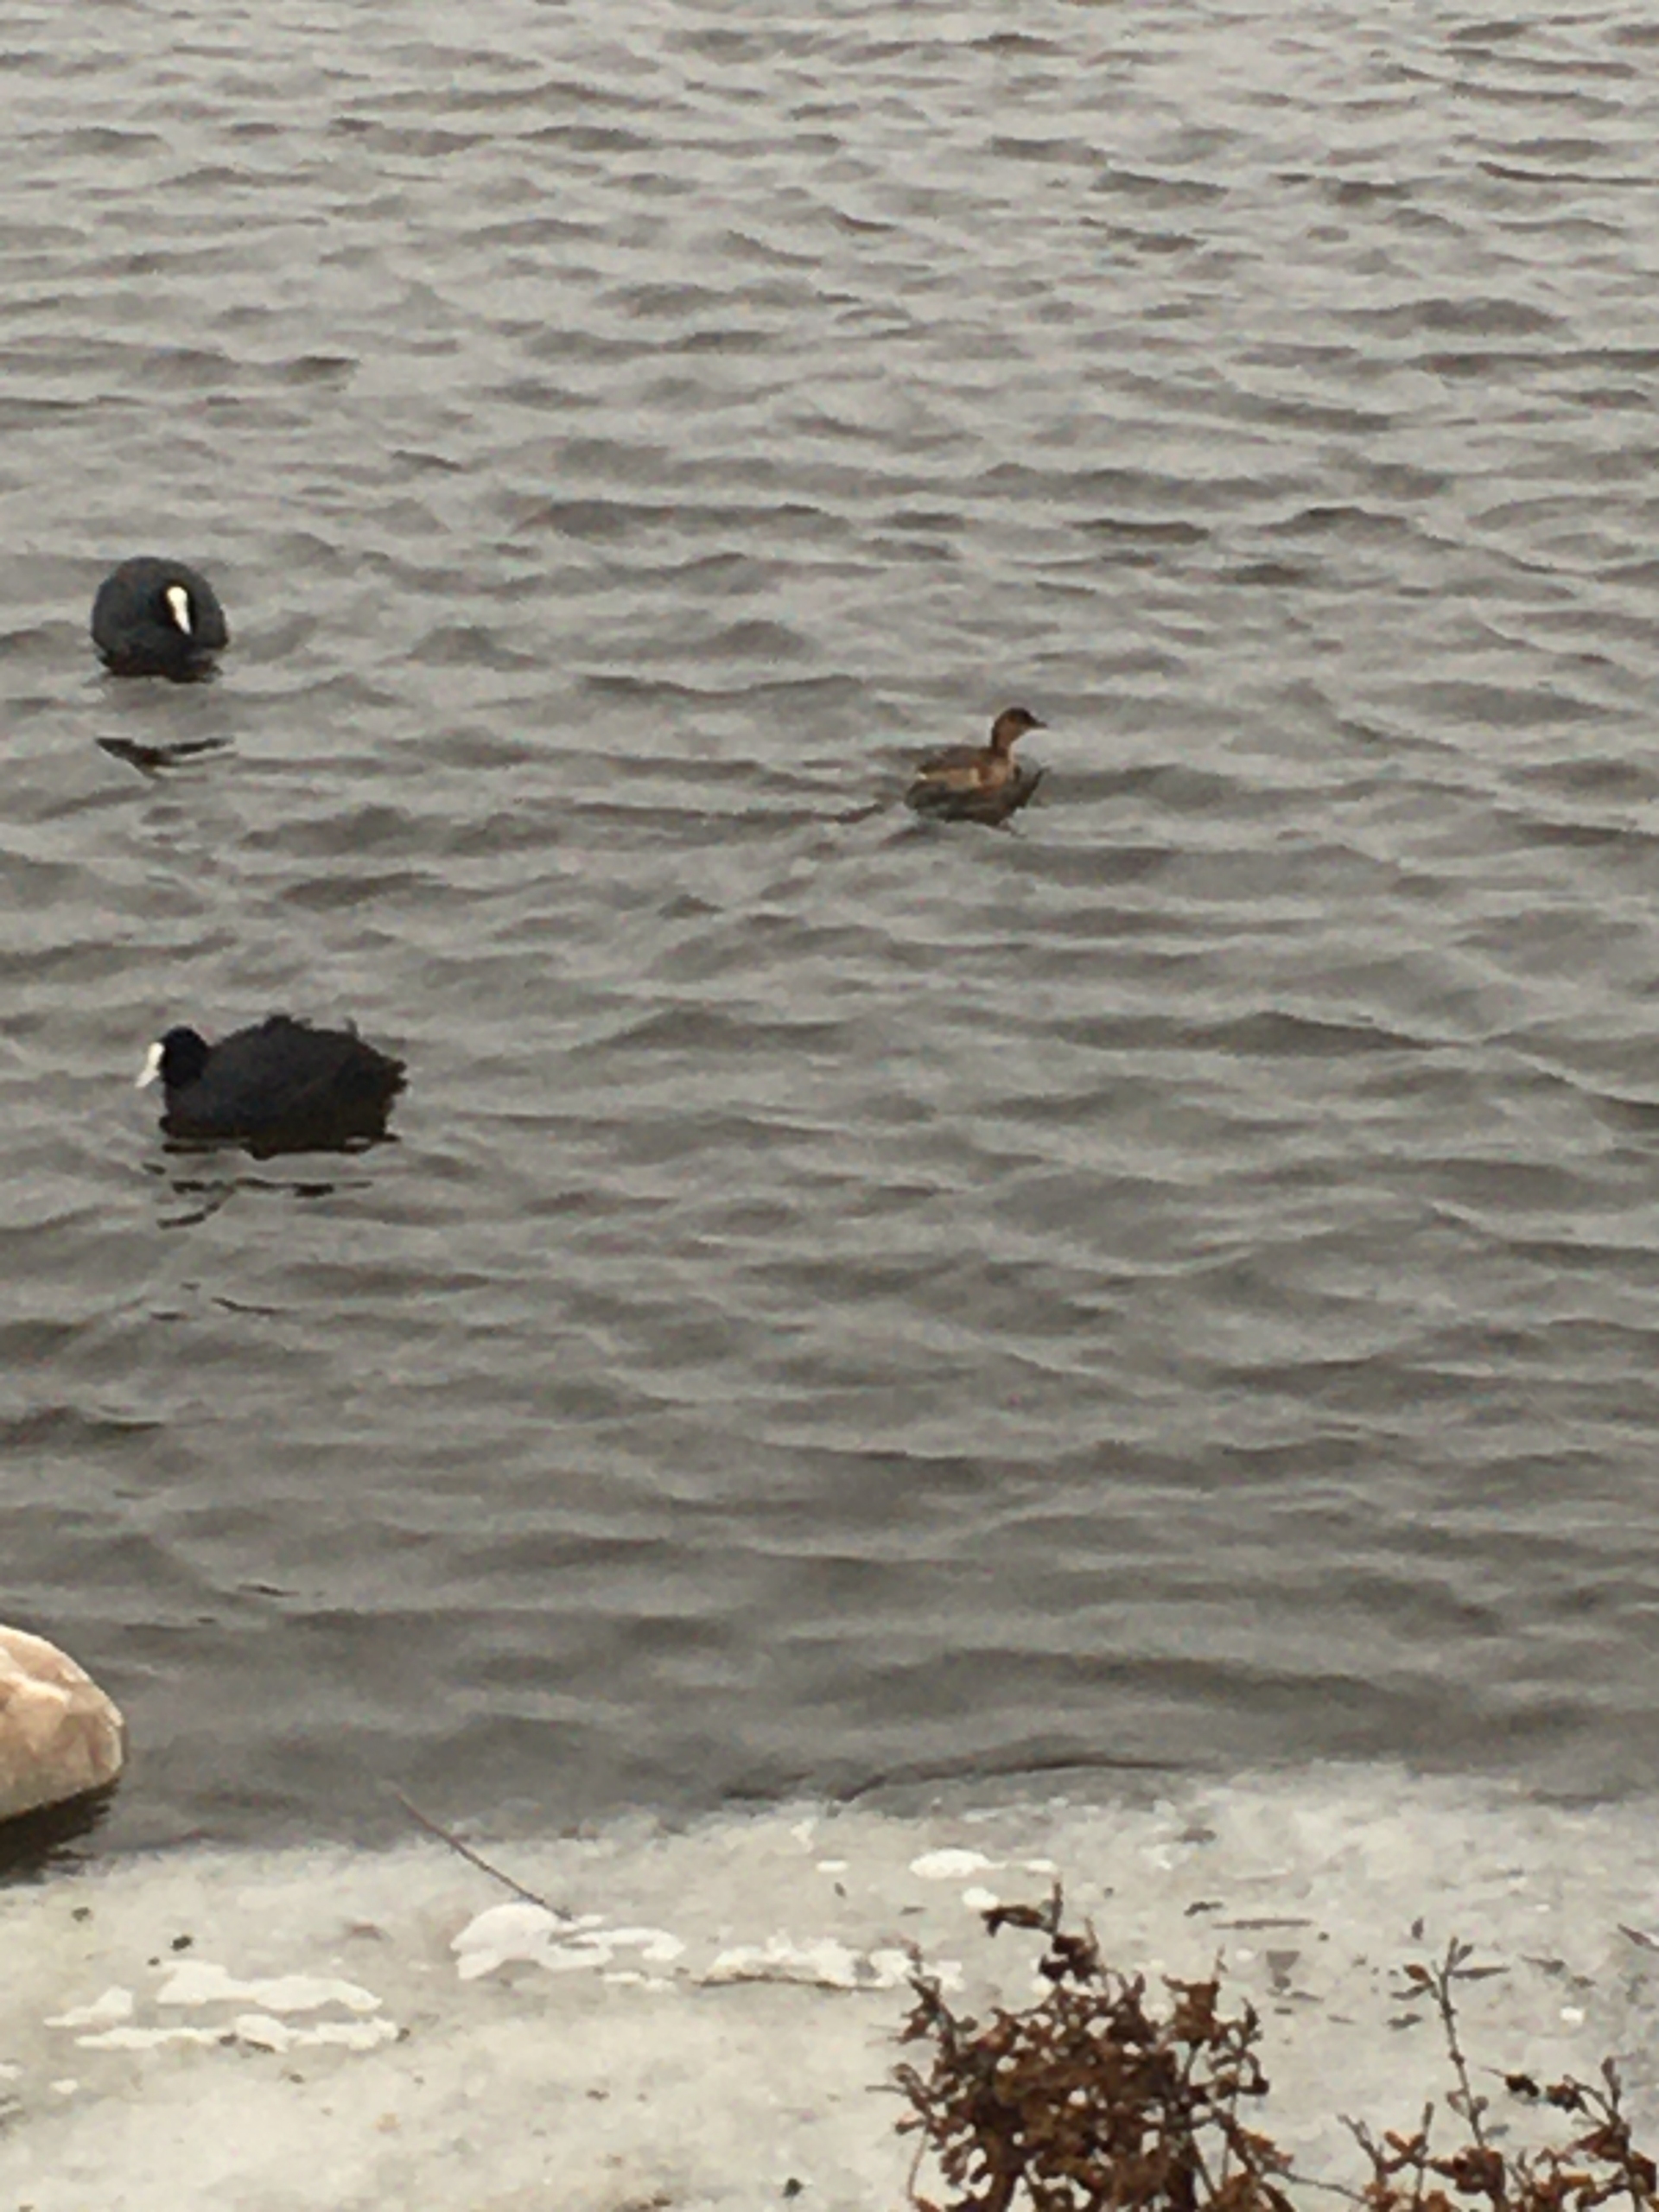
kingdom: Animalia
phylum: Chordata
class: Aves
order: Podicipediformes
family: Podicipedidae
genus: Tachybaptus
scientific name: Tachybaptus ruficollis
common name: Lille lappedykker
